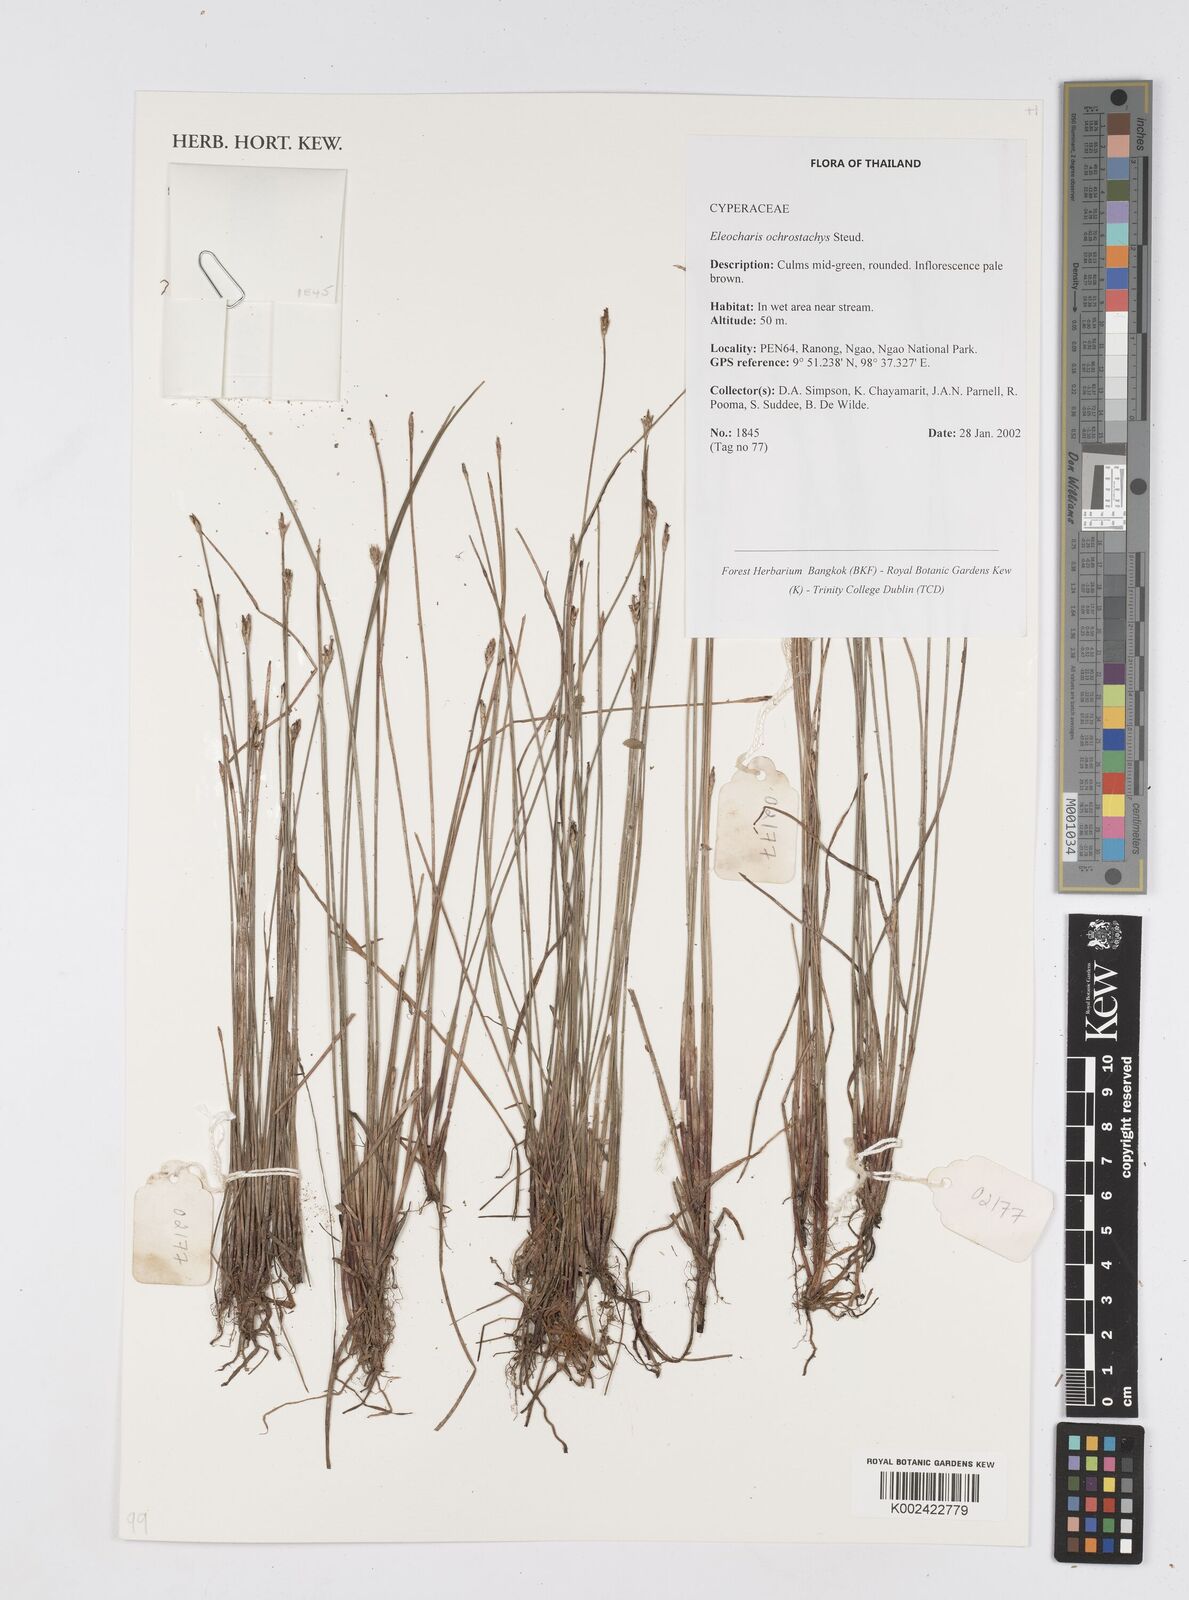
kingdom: Plantae
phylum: Tracheophyta
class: Liliopsida
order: Poales
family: Cyperaceae
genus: Eleocharis
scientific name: Eleocharis ochrostachys
